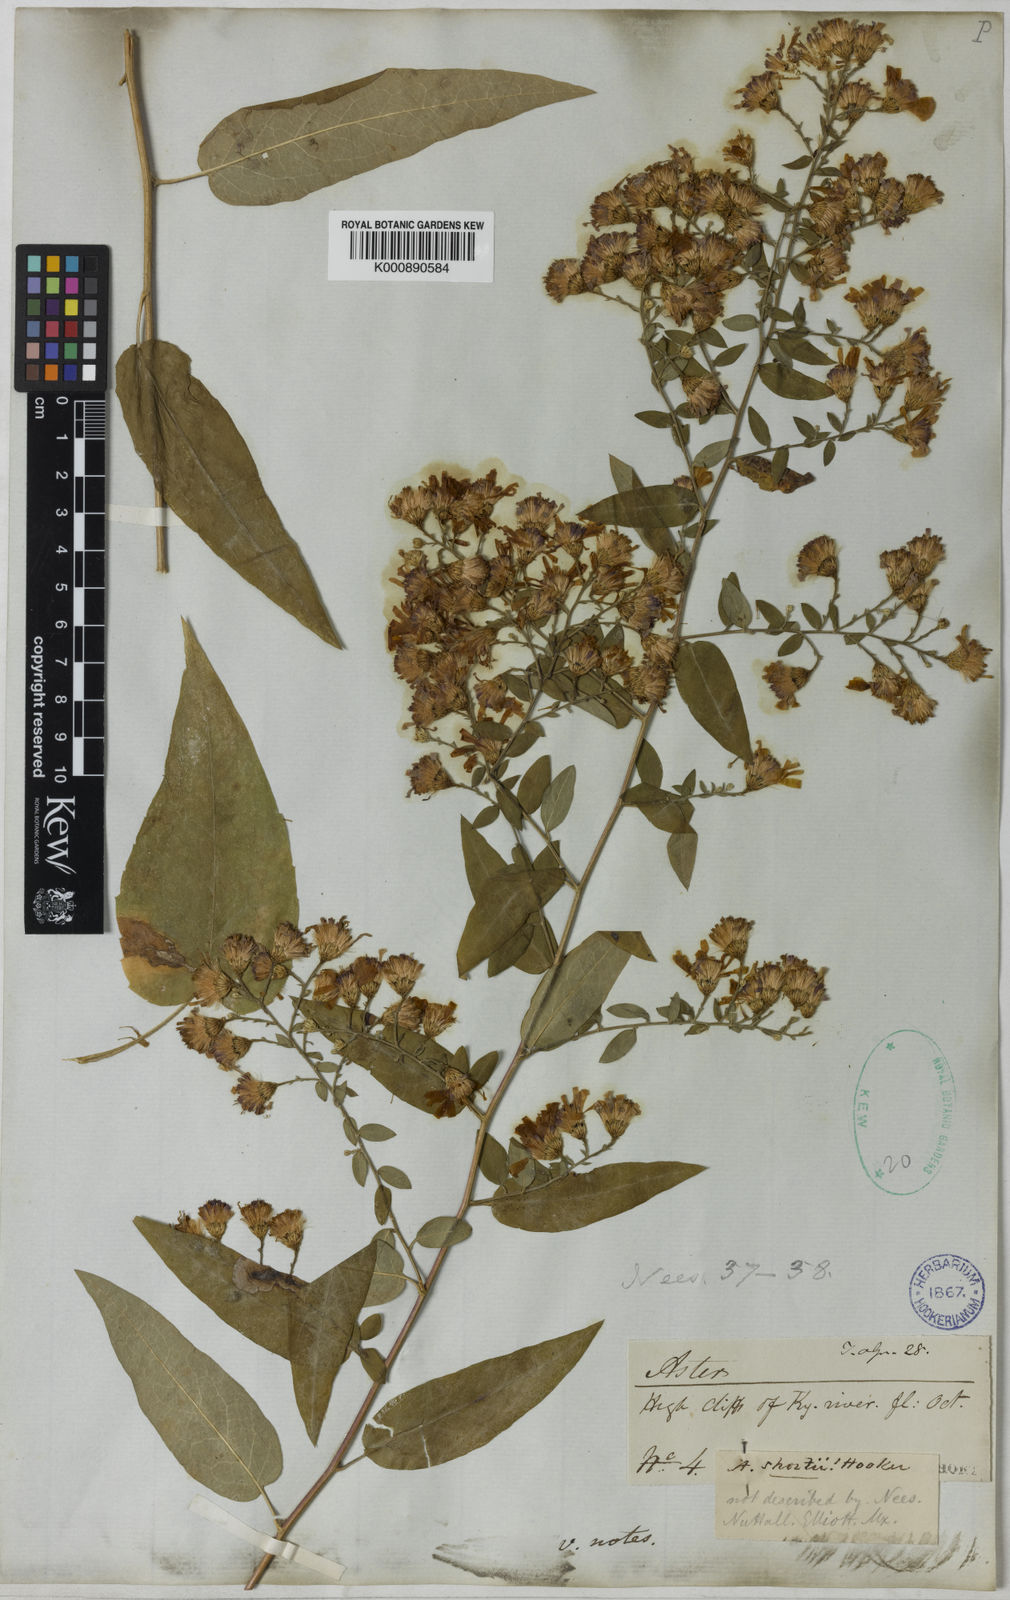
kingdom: Plantae
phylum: Tracheophyta
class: Magnoliopsida
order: Asterales
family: Asteraceae
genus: Aster
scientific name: Aster
